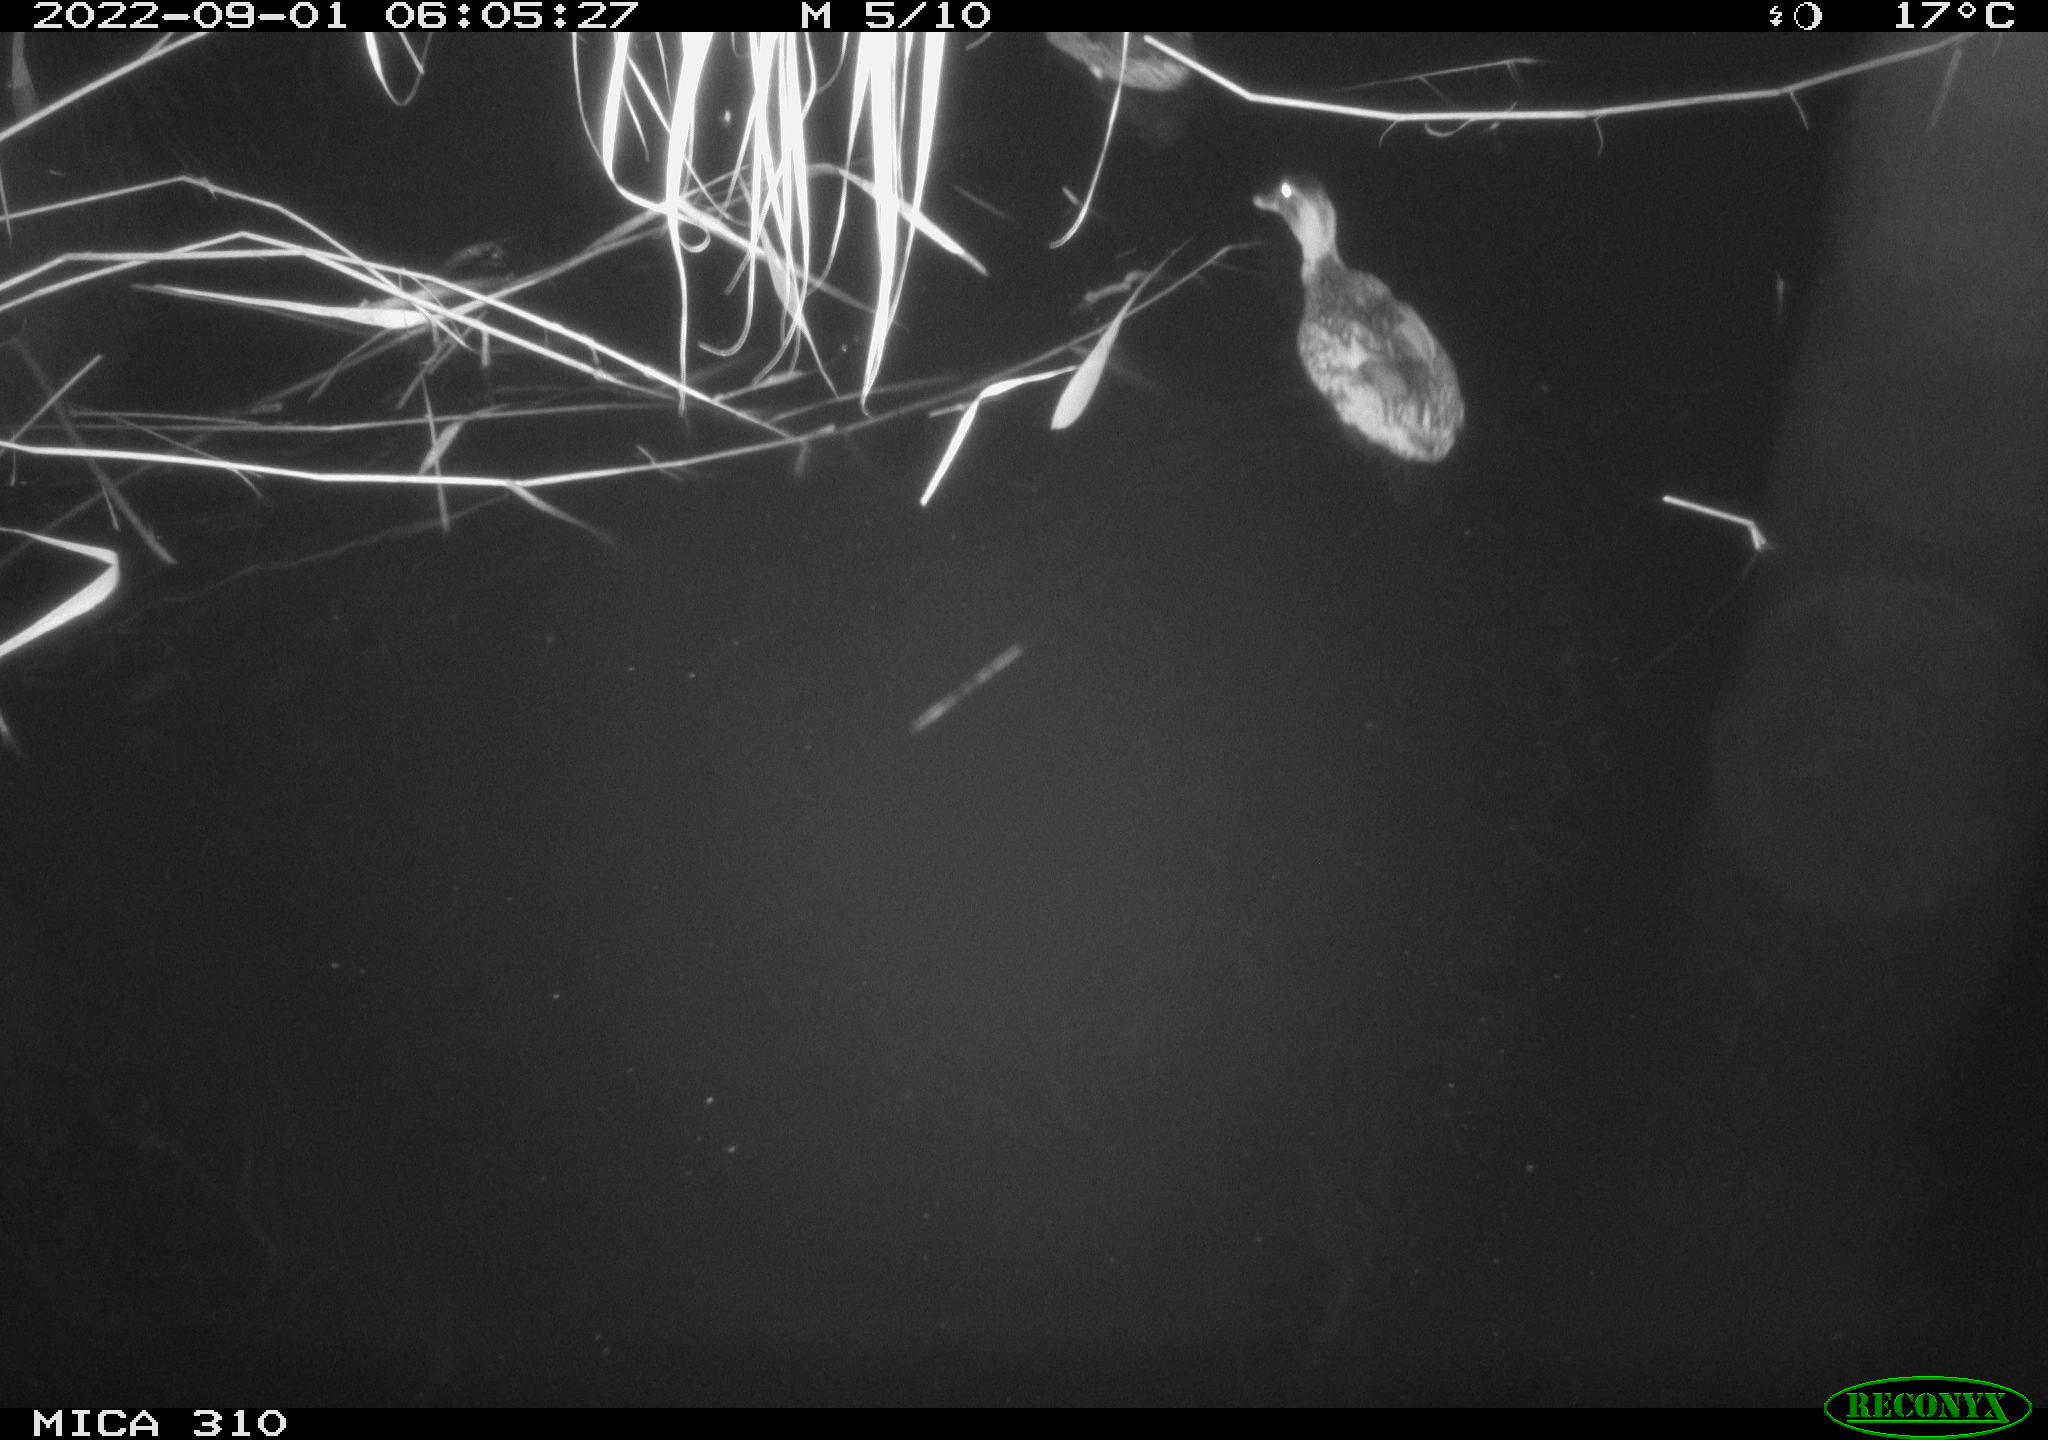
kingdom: Animalia
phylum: Chordata
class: Aves
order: Anseriformes
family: Anatidae
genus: Anas
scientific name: Anas platyrhynchos
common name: Mallard
